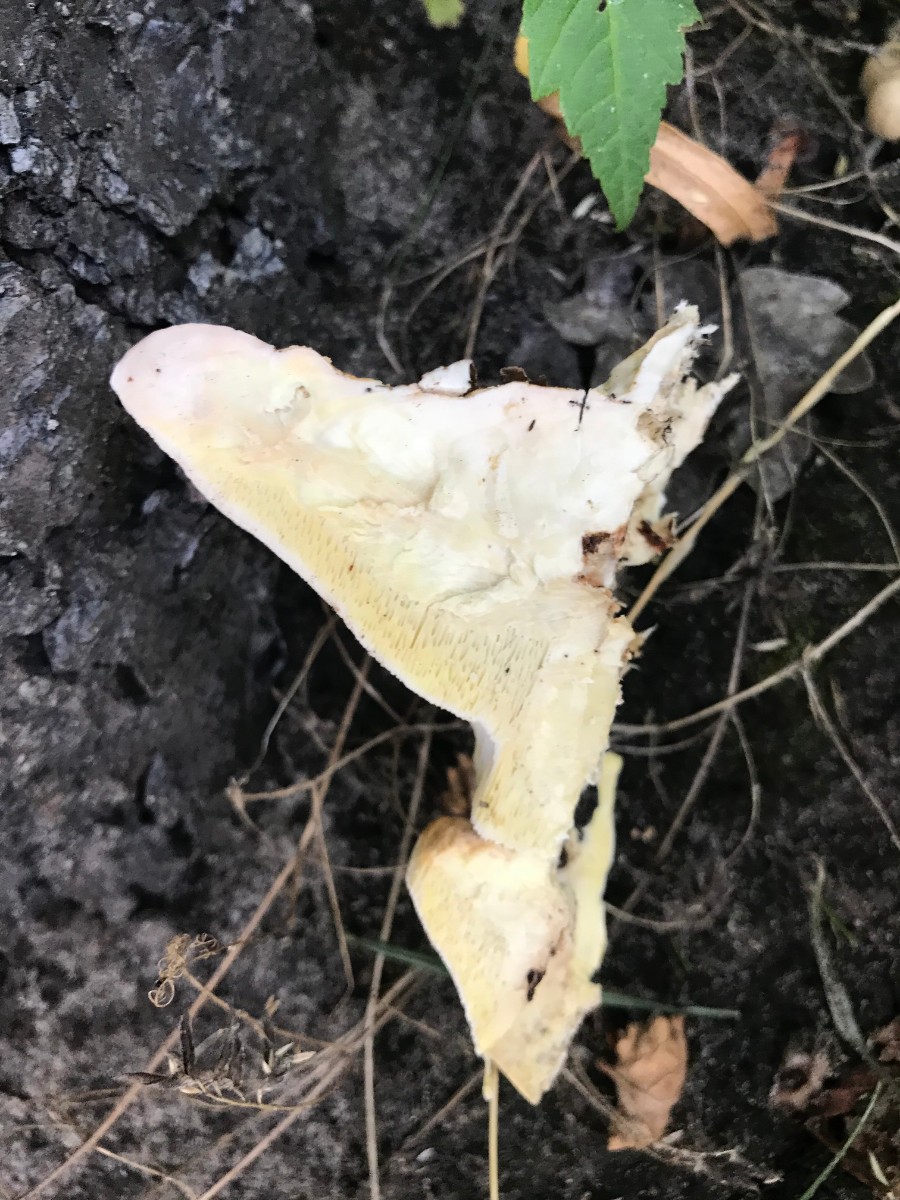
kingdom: Fungi
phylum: Basidiomycota
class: Agaricomycetes
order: Polyporales
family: Fomitopsidaceae
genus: Fomitopsis
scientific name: Fomitopsis pinicola
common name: randbæltet hovporesvamp
